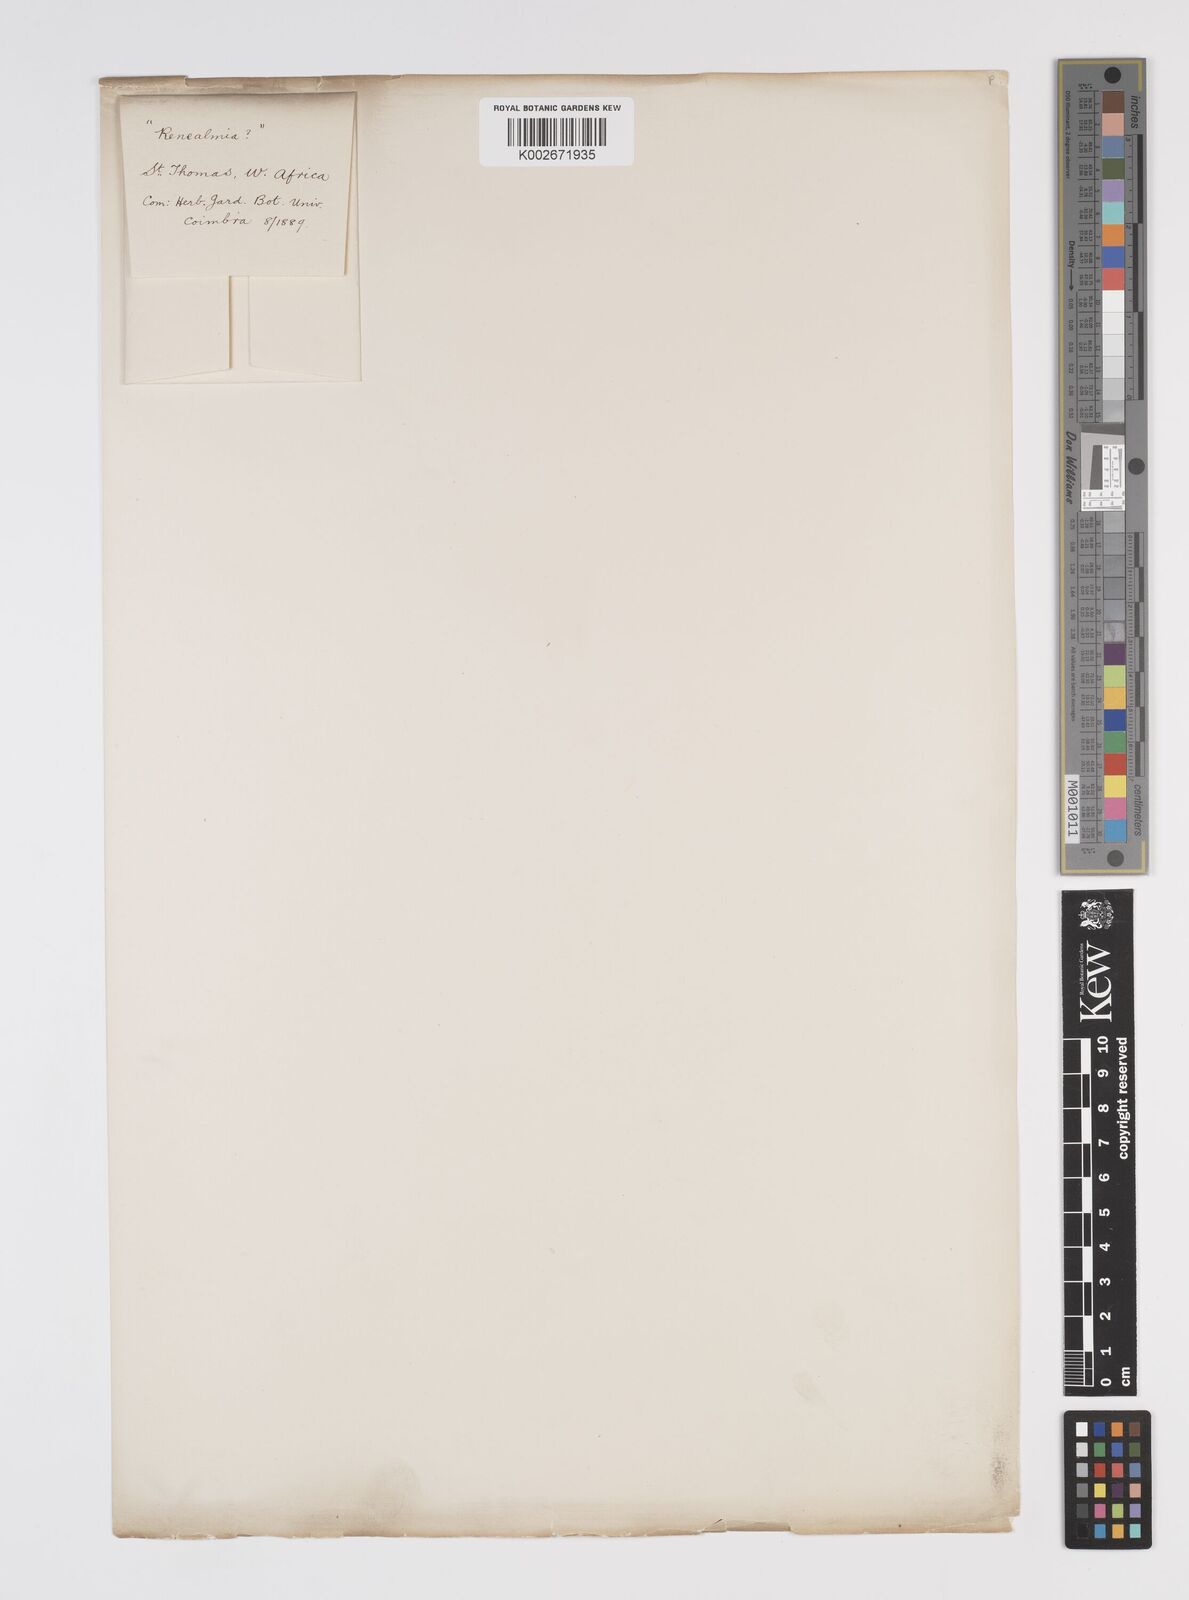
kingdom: Plantae
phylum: Tracheophyta
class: Liliopsida
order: Zingiberales
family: Zingiberaceae
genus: Renealmia
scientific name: Renealmia
